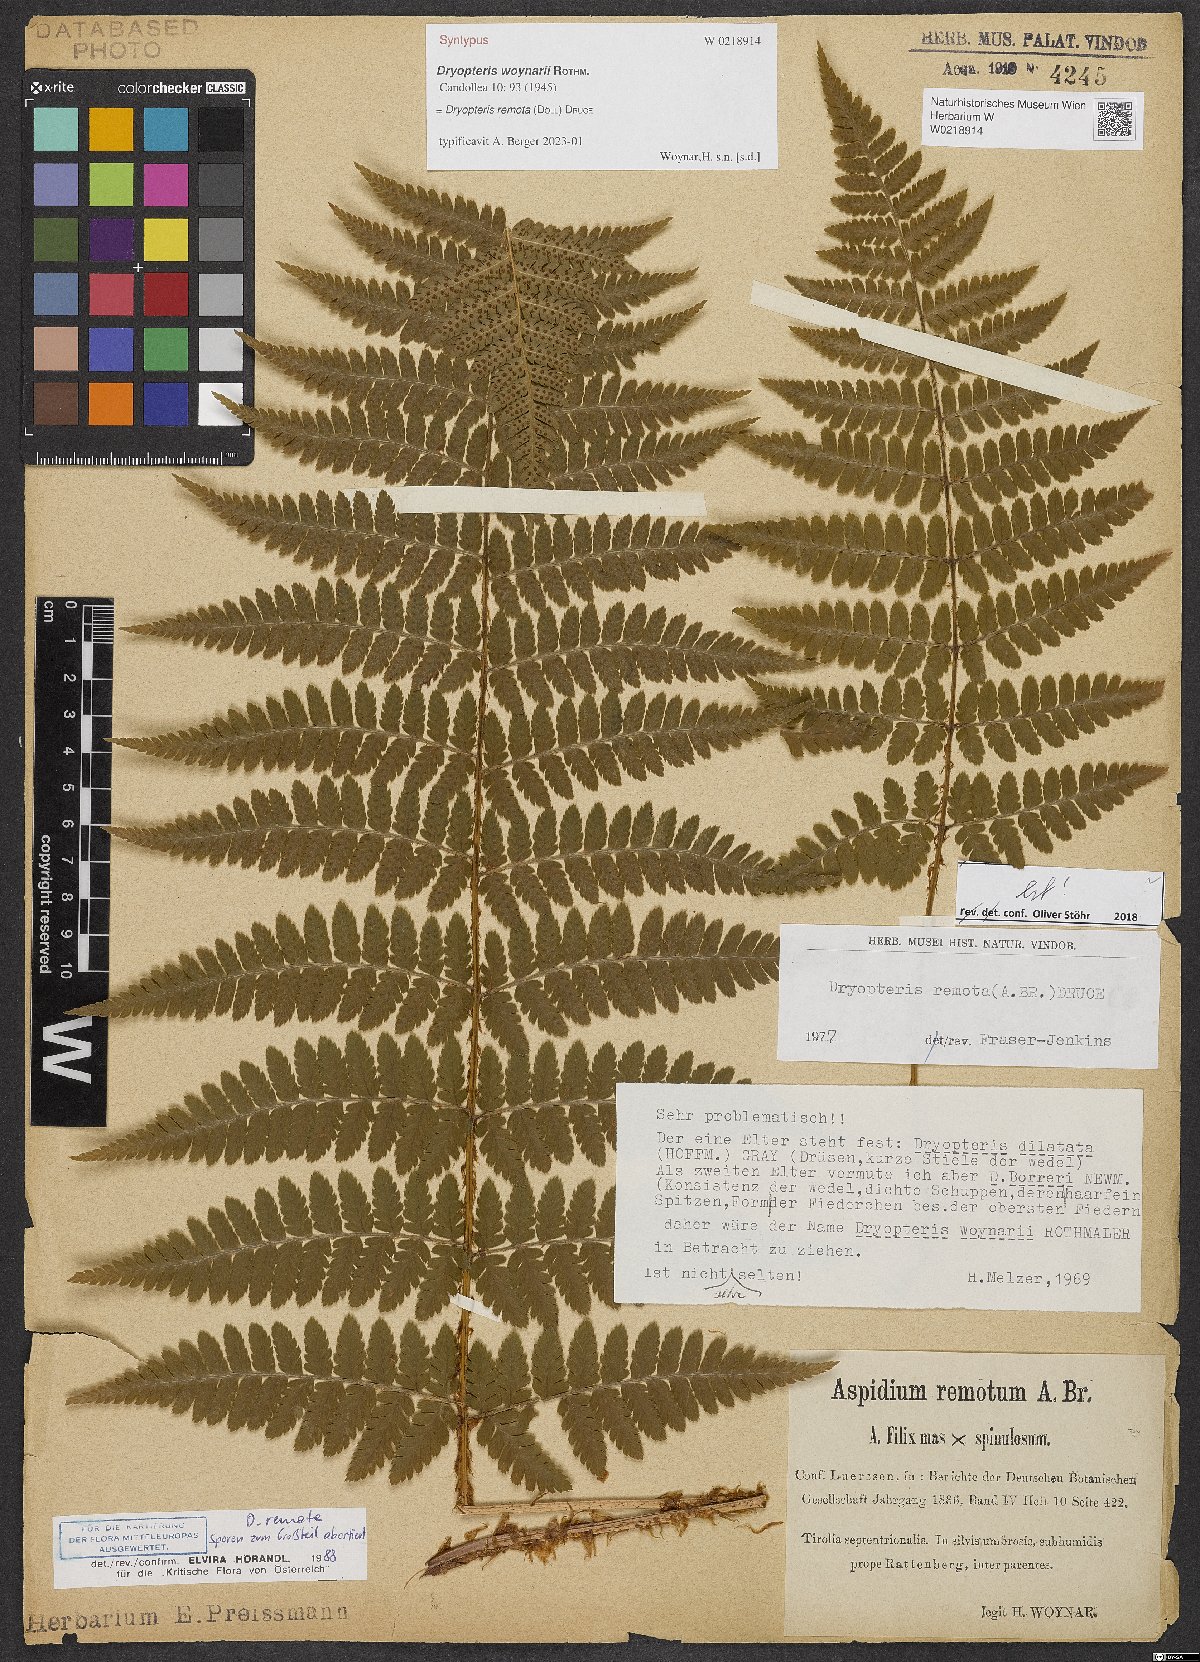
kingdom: Plantae
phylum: Tracheophyta
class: Polypodiopsida
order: Polypodiales
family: Dryopteridaceae
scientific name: Dryopteridaceae
